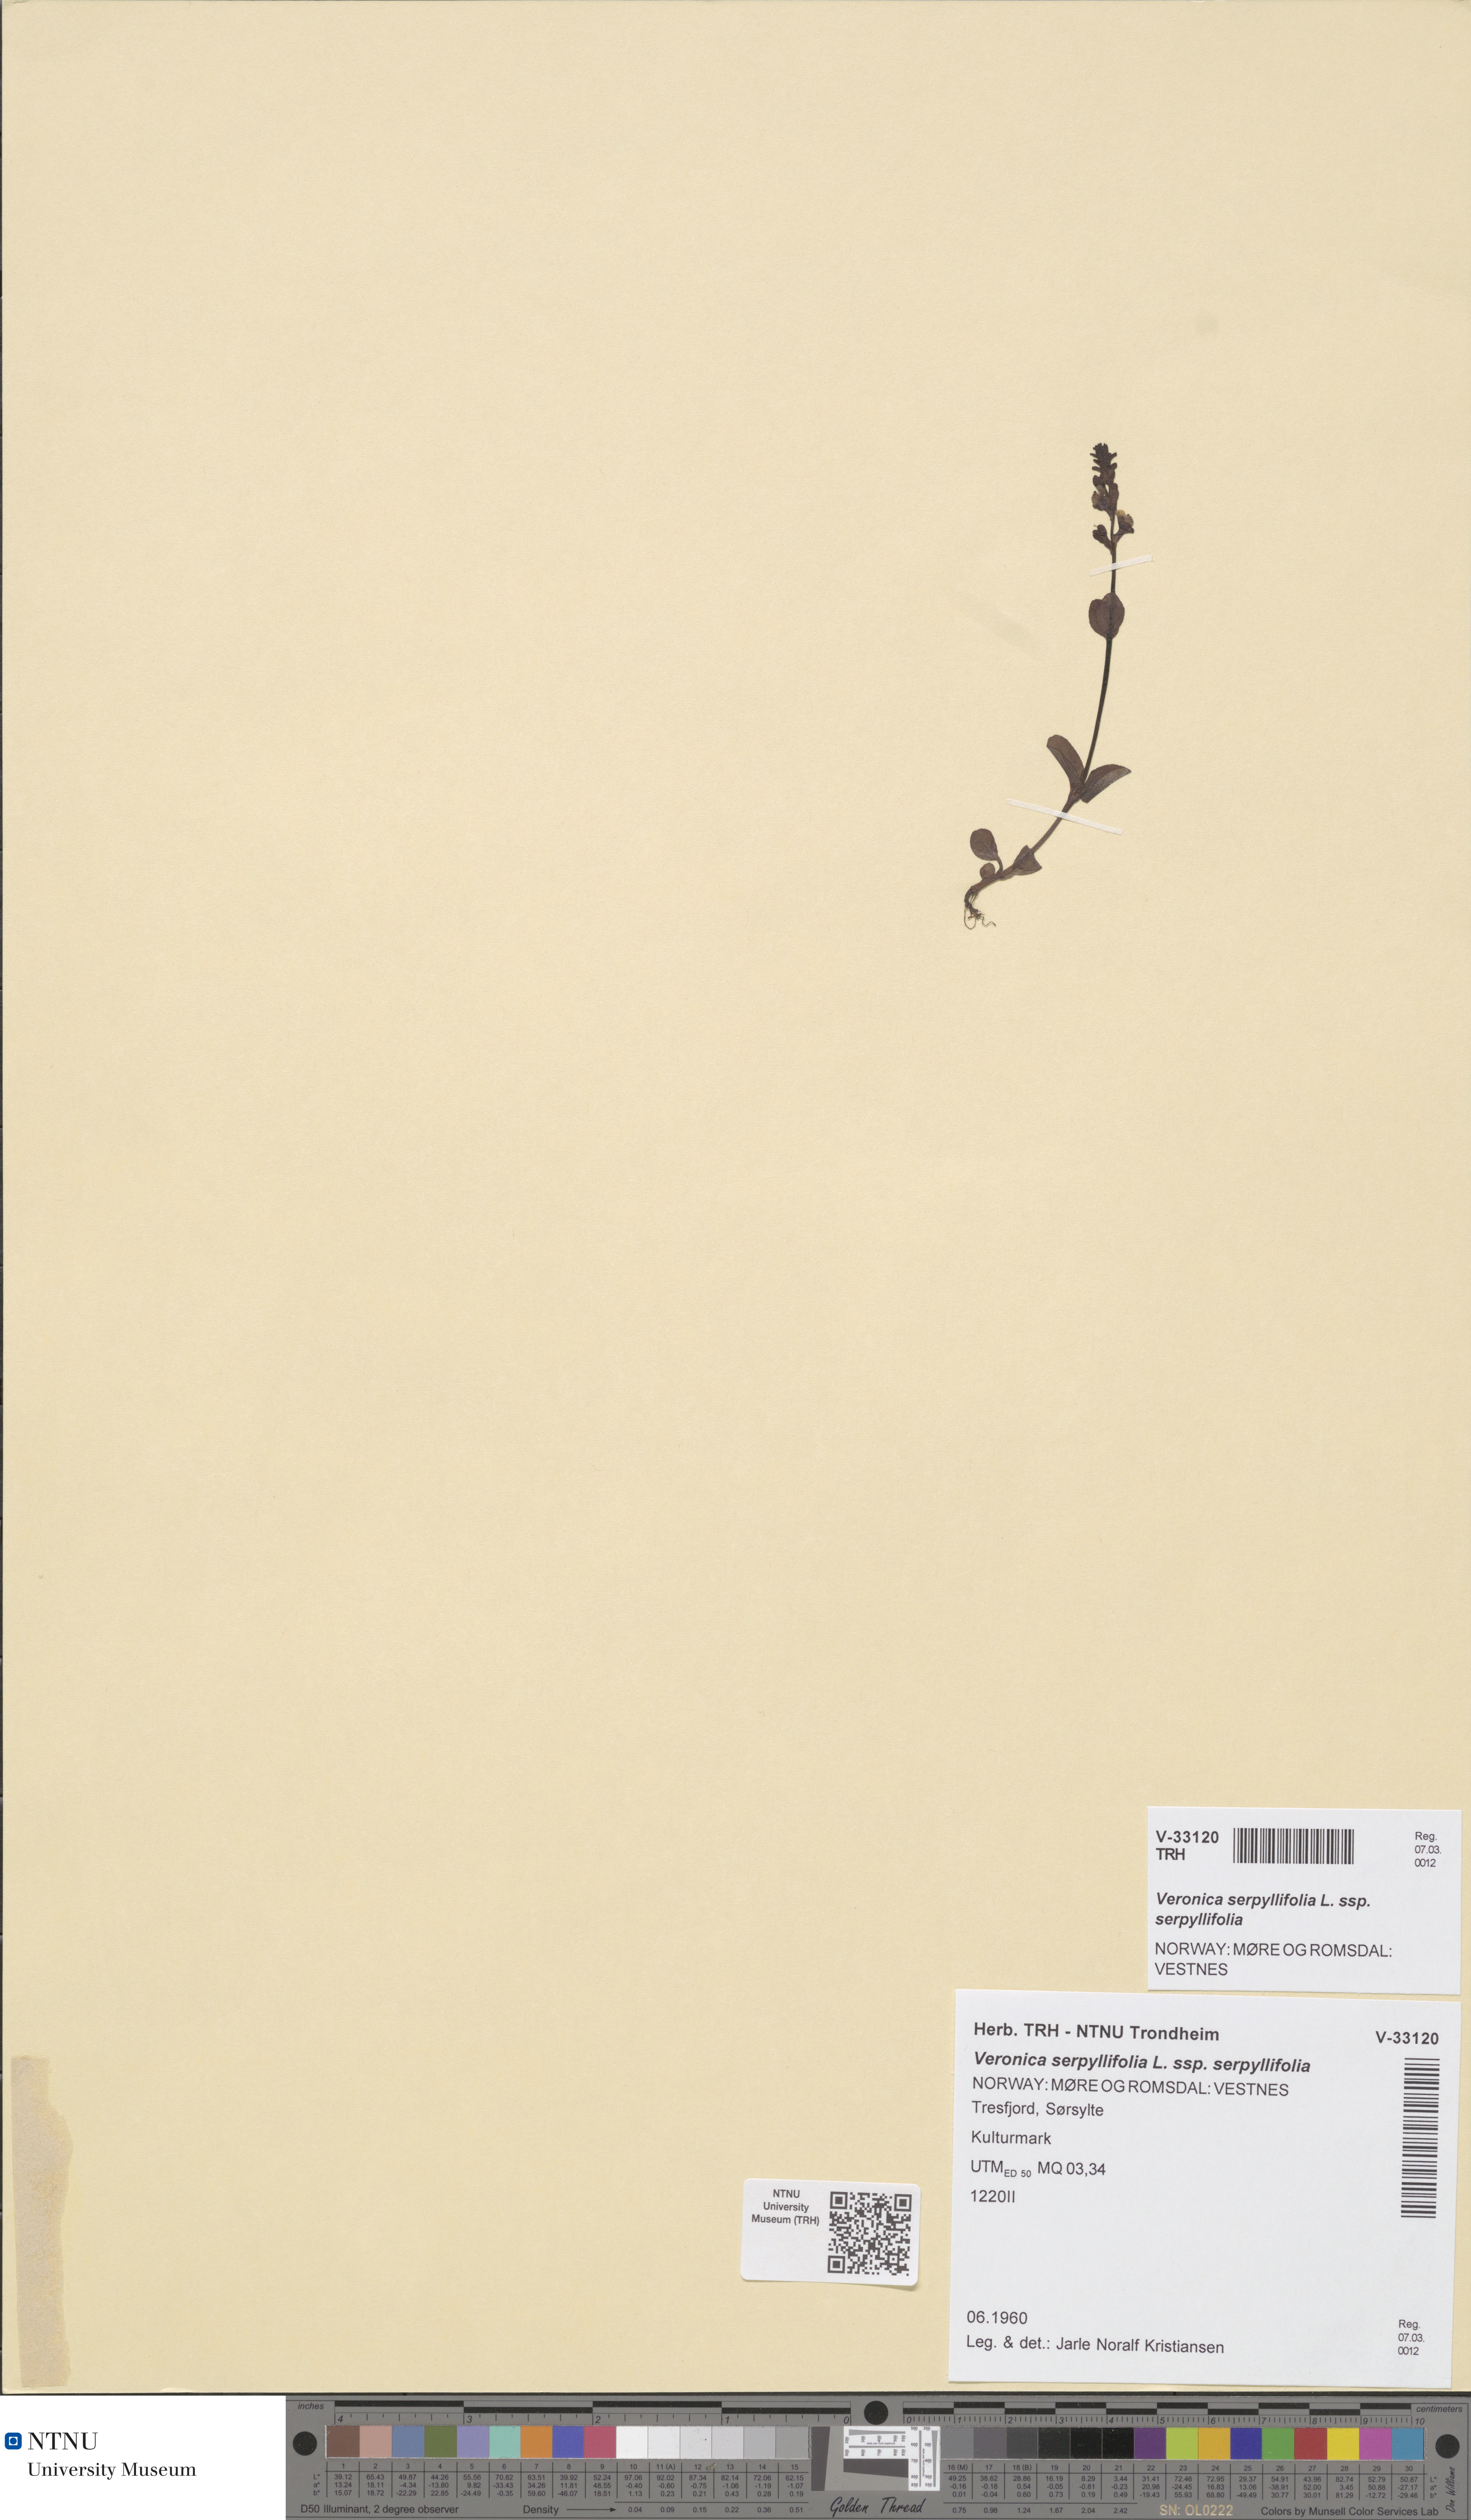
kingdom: Plantae
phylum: Tracheophyta
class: Magnoliopsida
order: Lamiales
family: Plantaginaceae
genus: Veronica
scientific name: Veronica serpyllifolia
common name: Thyme-leaved speedwell
